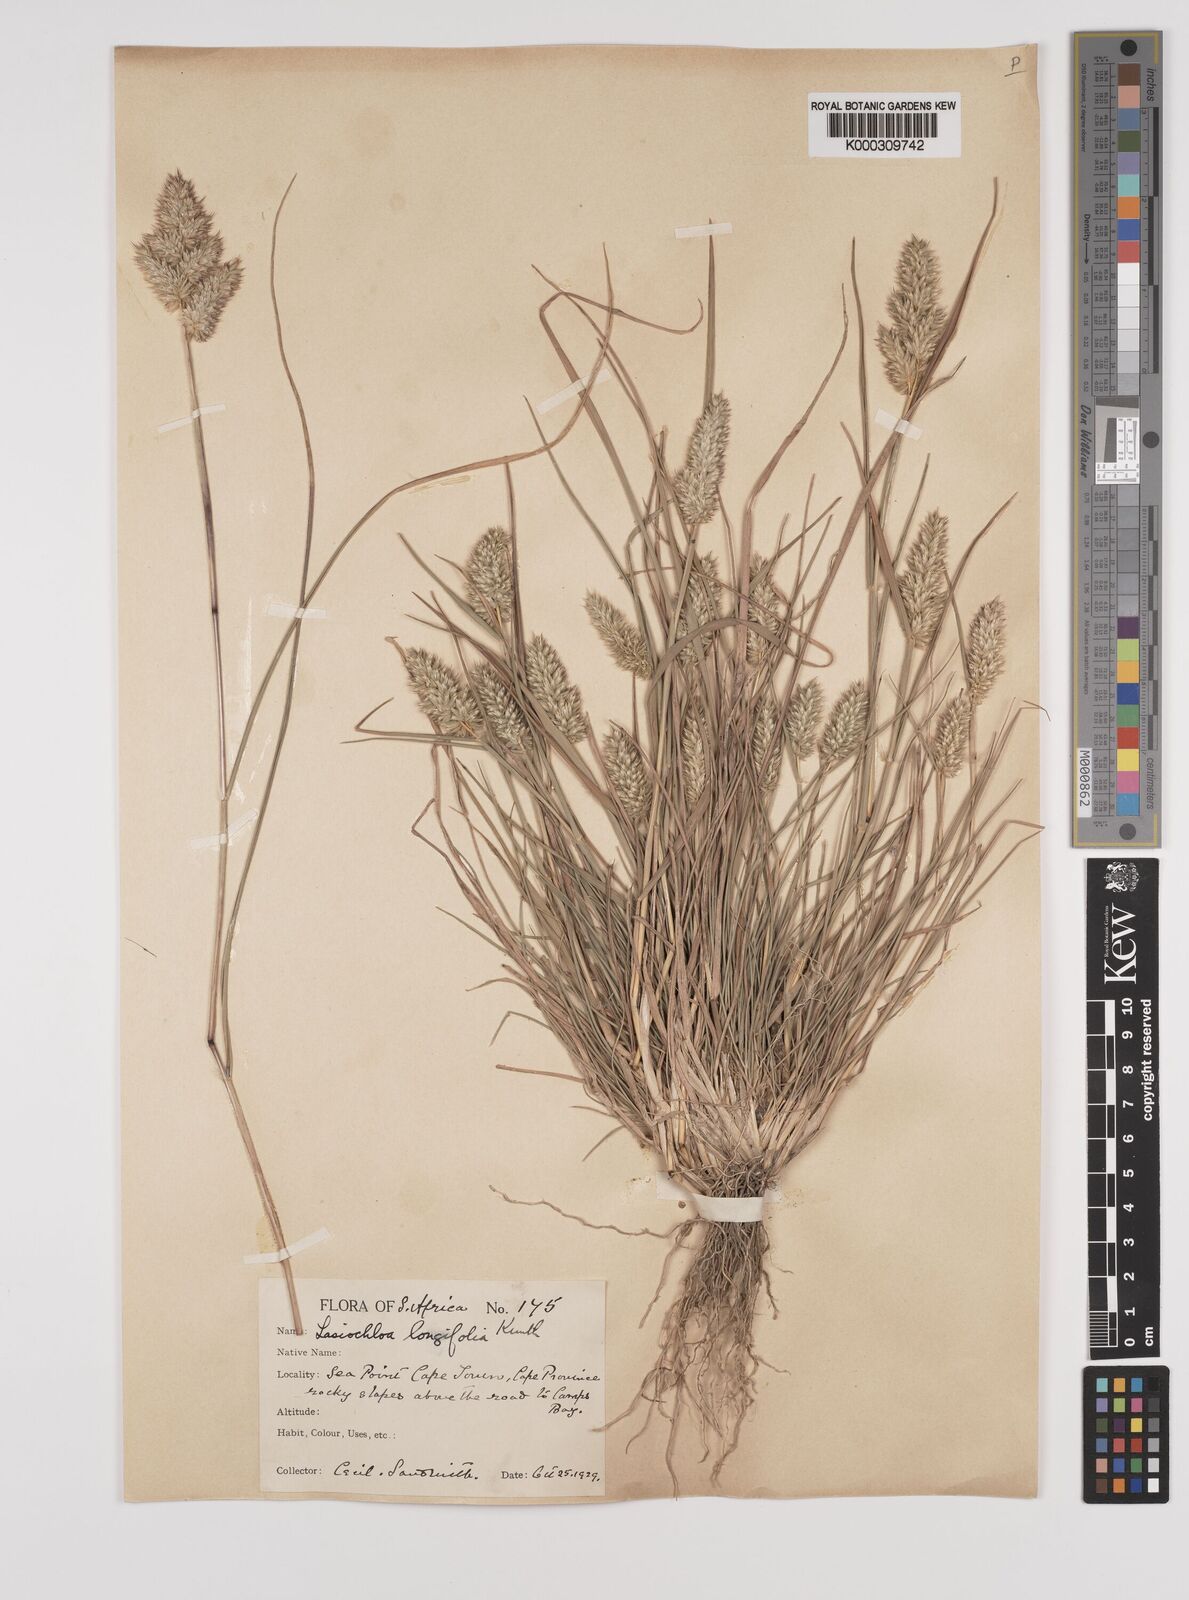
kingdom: Plantae
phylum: Tracheophyta
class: Liliopsida
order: Poales
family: Poaceae
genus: Tribolium
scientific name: Tribolium hispidum
